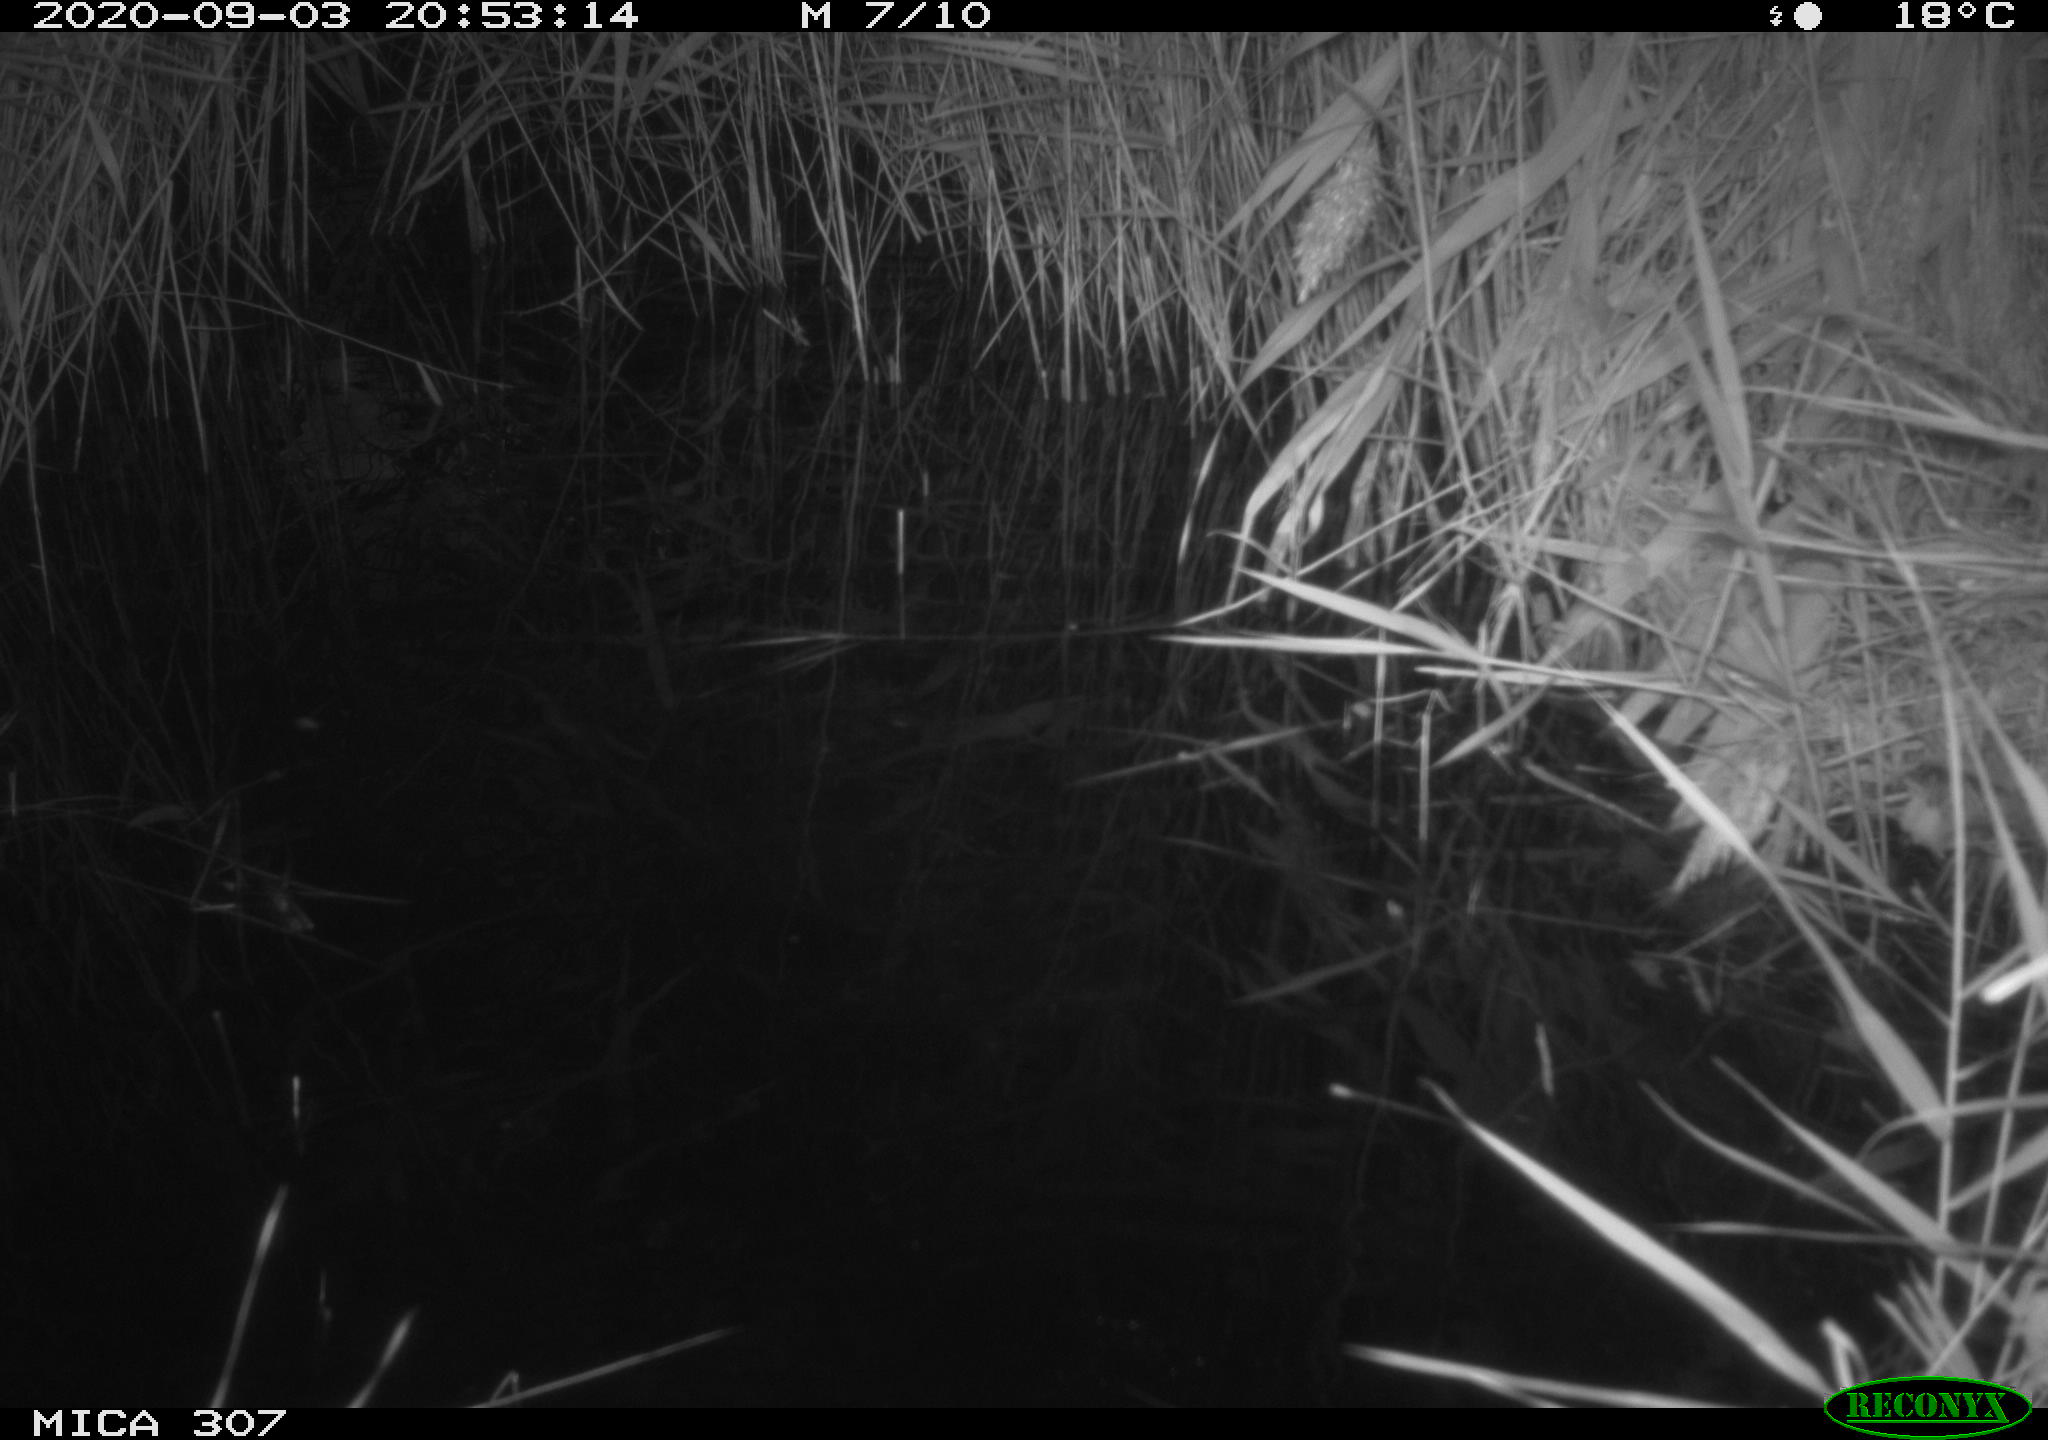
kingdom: Animalia
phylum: Chordata
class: Aves
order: Gruiformes
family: Rallidae
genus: Gallinula
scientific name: Gallinula chloropus
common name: Common moorhen
